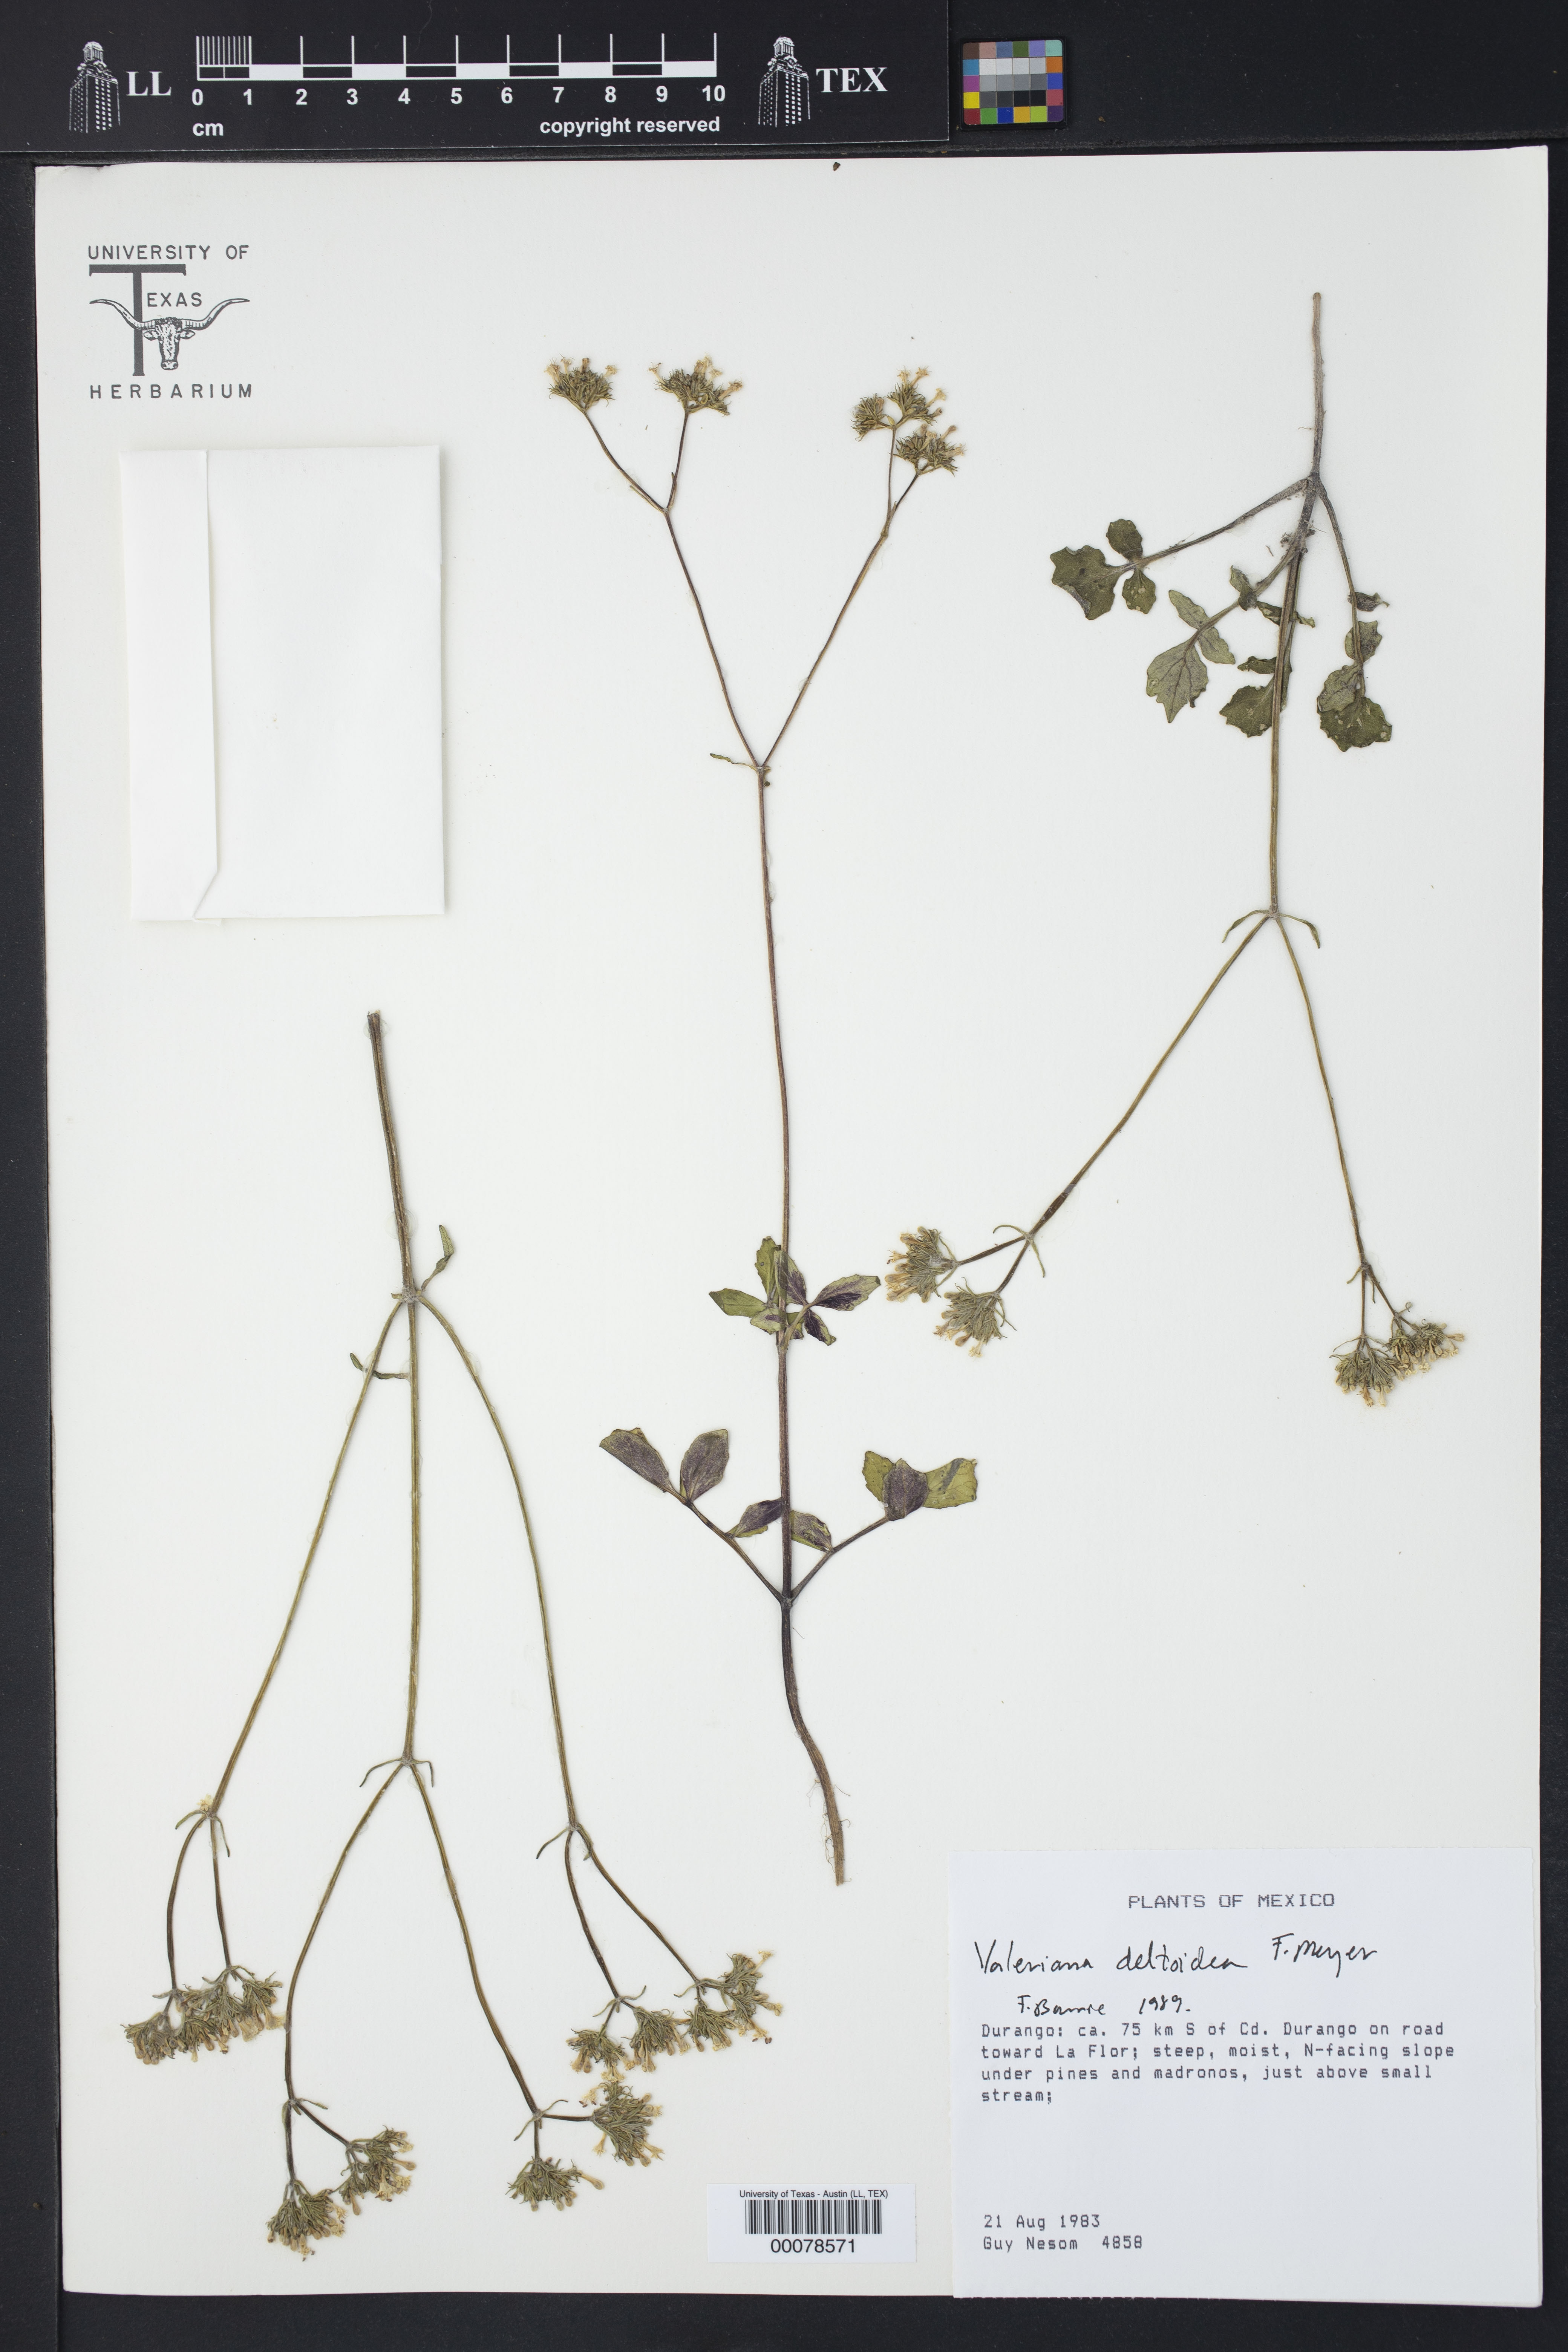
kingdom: Plantae
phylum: Tracheophyta
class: Magnoliopsida
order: Dipsacales
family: Caprifoliaceae
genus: Valeriana
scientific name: Valeriana deltoidea
